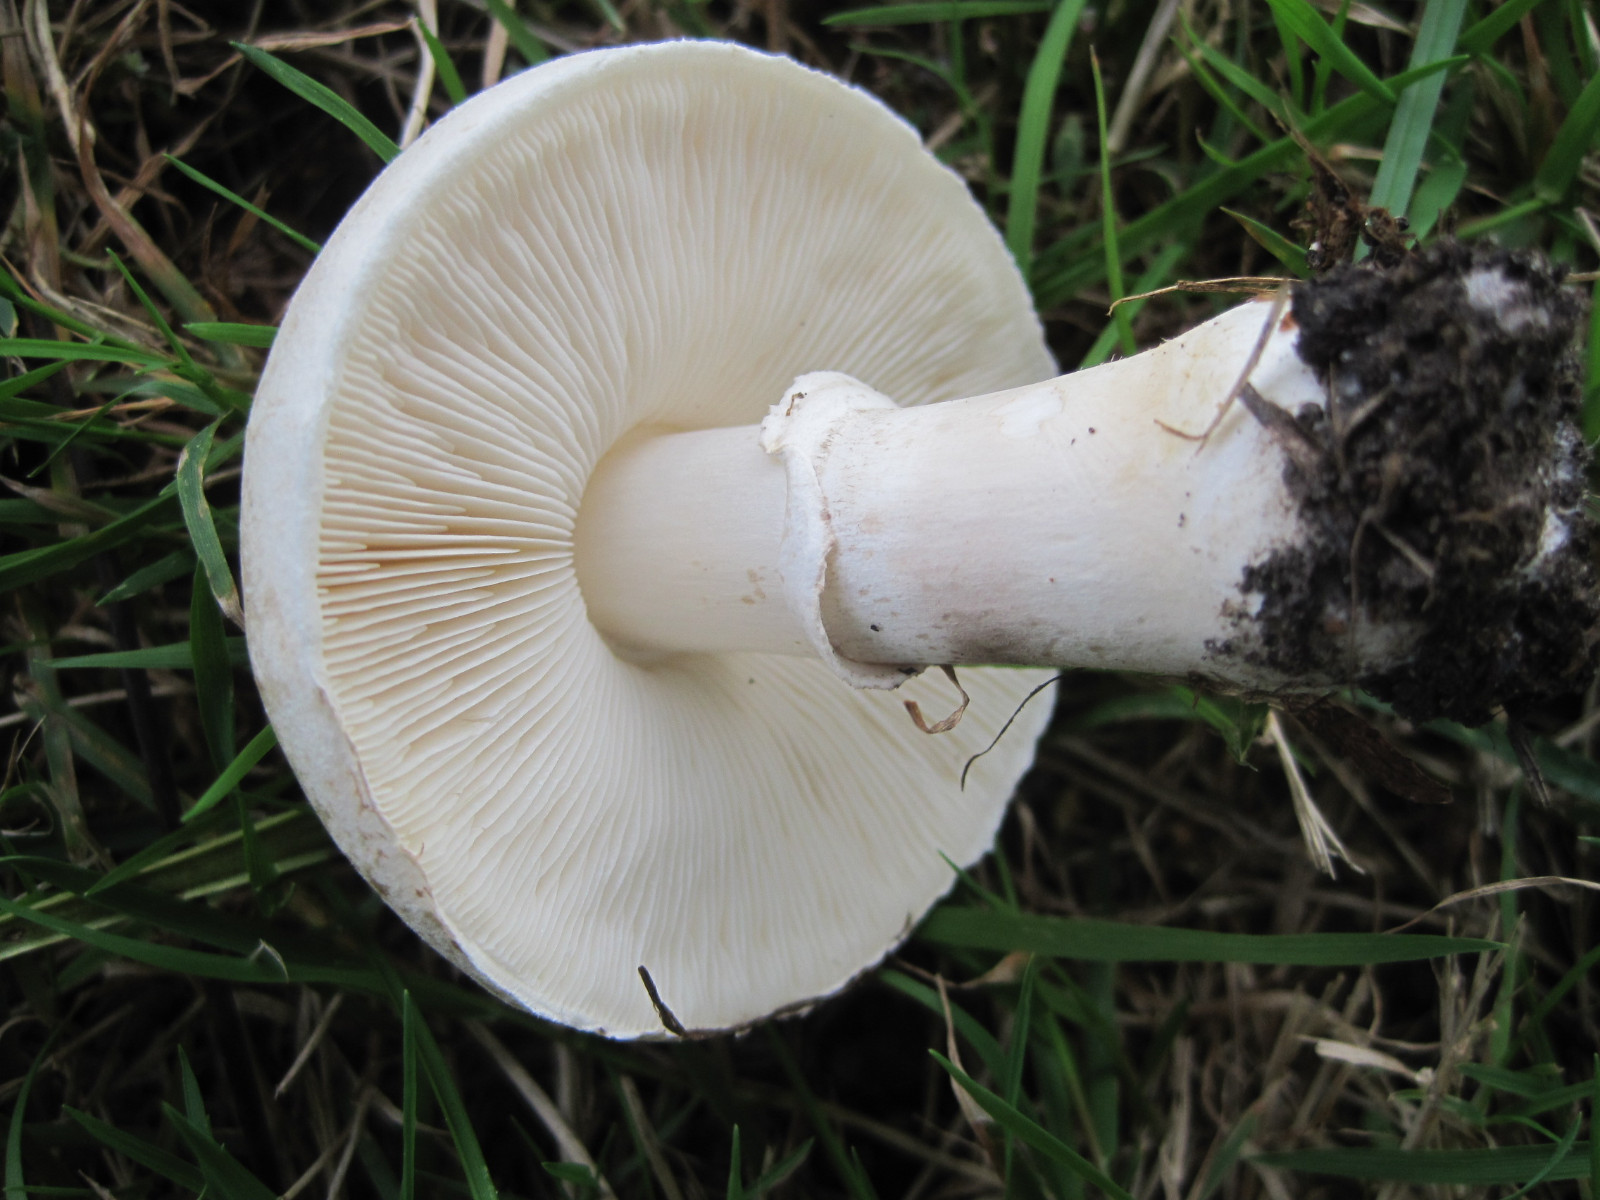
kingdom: Fungi
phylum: Basidiomycota
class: Agaricomycetes
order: Agaricales
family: Agaricaceae
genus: Leucoagaricus
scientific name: Leucoagaricus leucothites
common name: rosabladet silkehat
